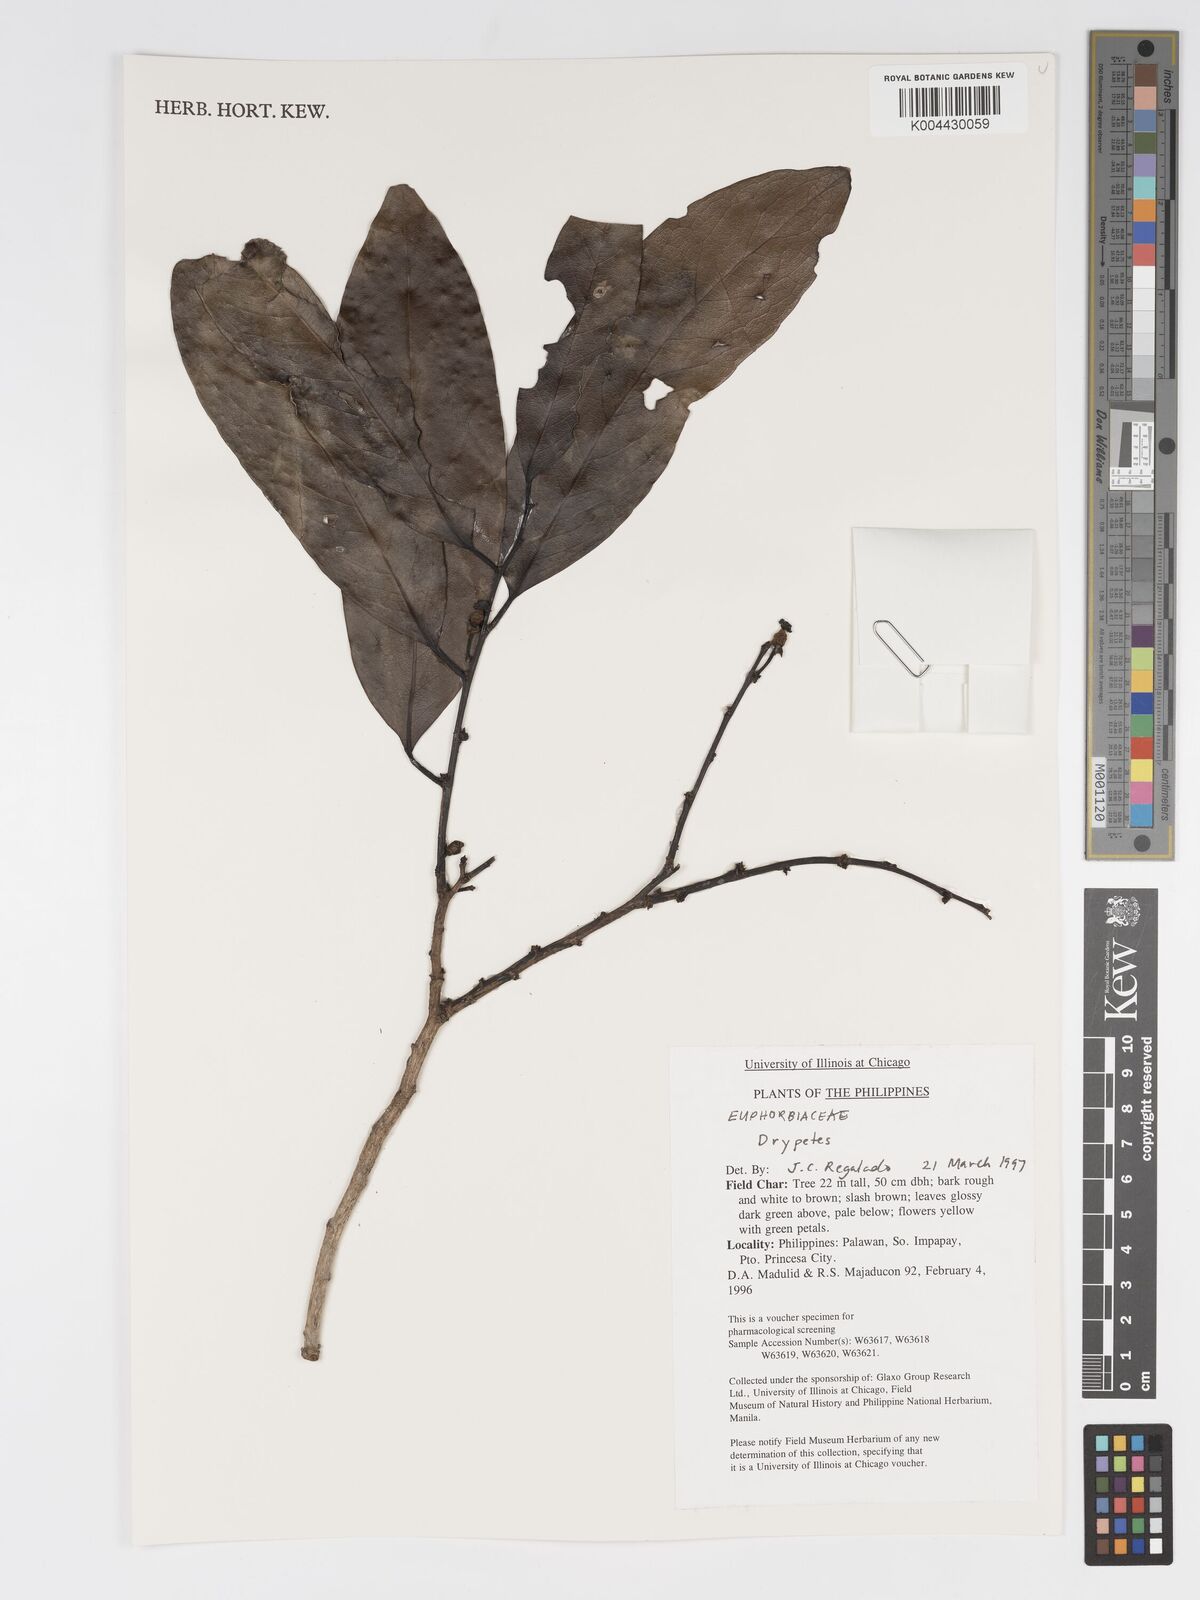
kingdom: Plantae
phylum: Tracheophyta
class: Magnoliopsida
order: Malpighiales
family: Putranjivaceae
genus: Drypetes
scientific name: Drypetes
